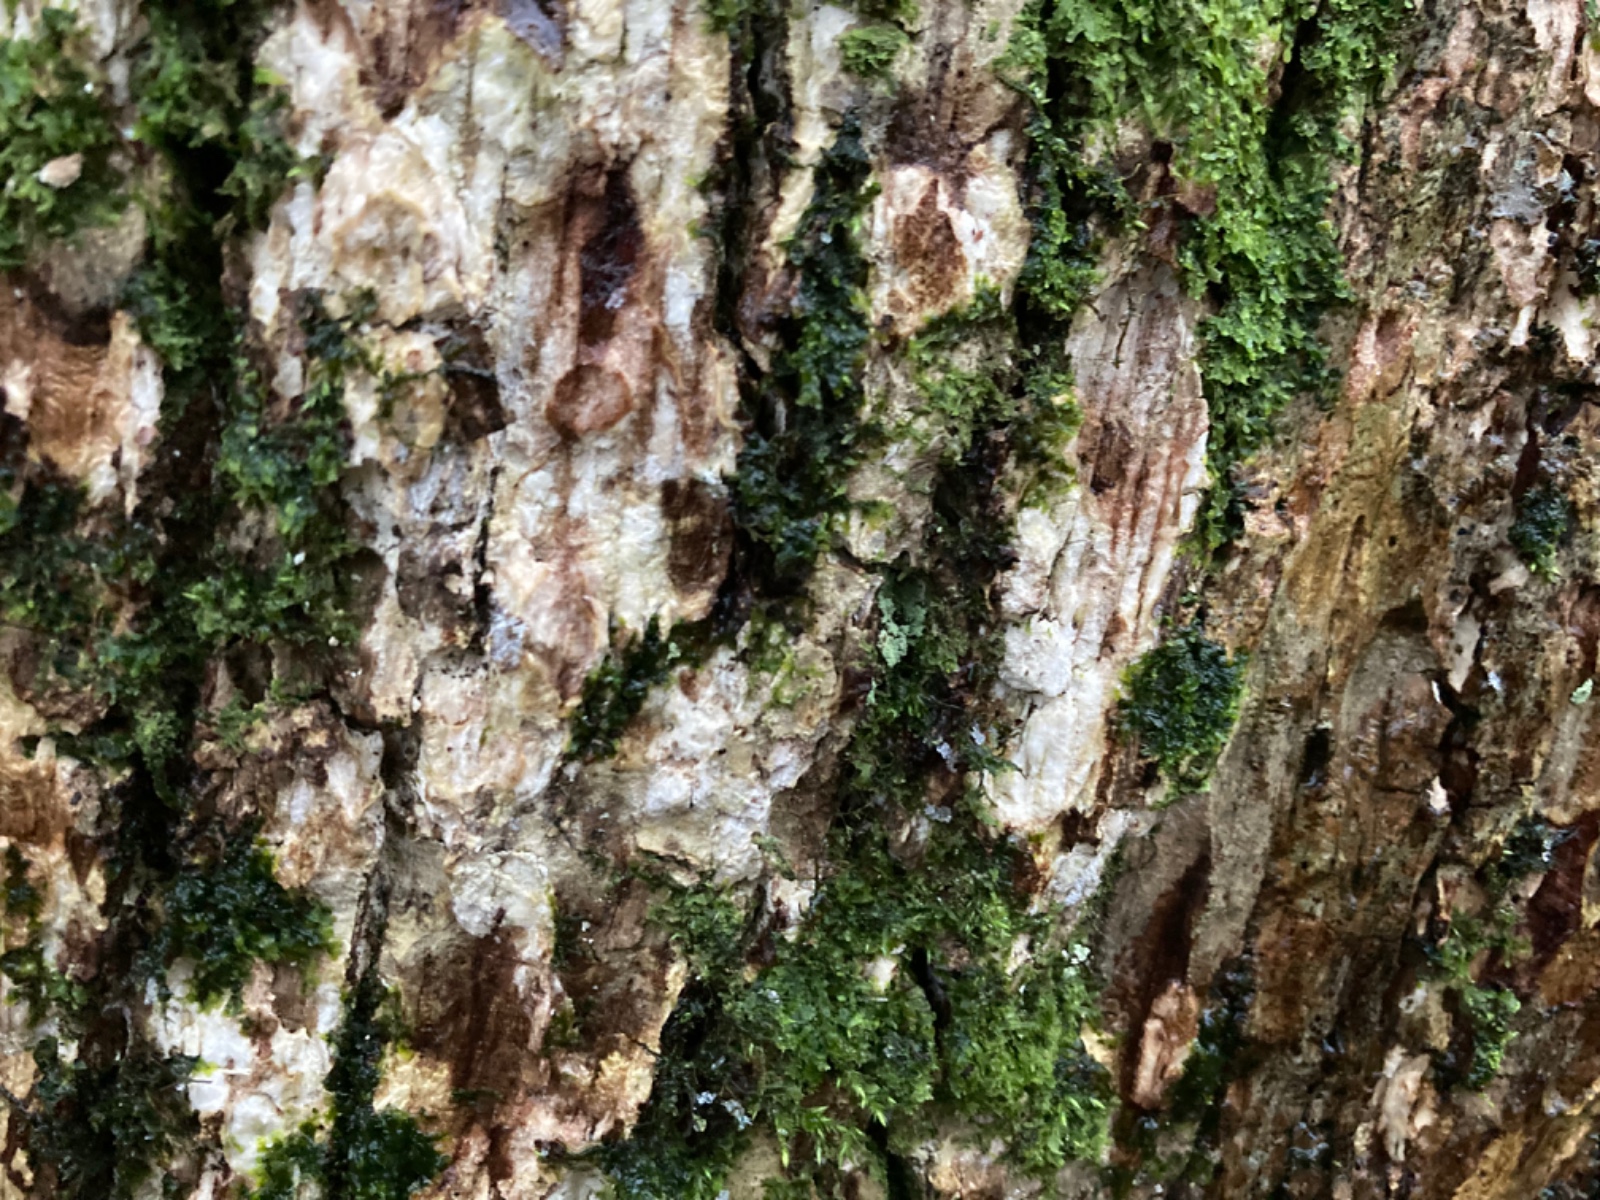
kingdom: Fungi
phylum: Basidiomycota
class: Agaricomycetes
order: Corticiales
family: Corticiaceae
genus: Dendrothele
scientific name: Dendrothele
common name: kalkplet
